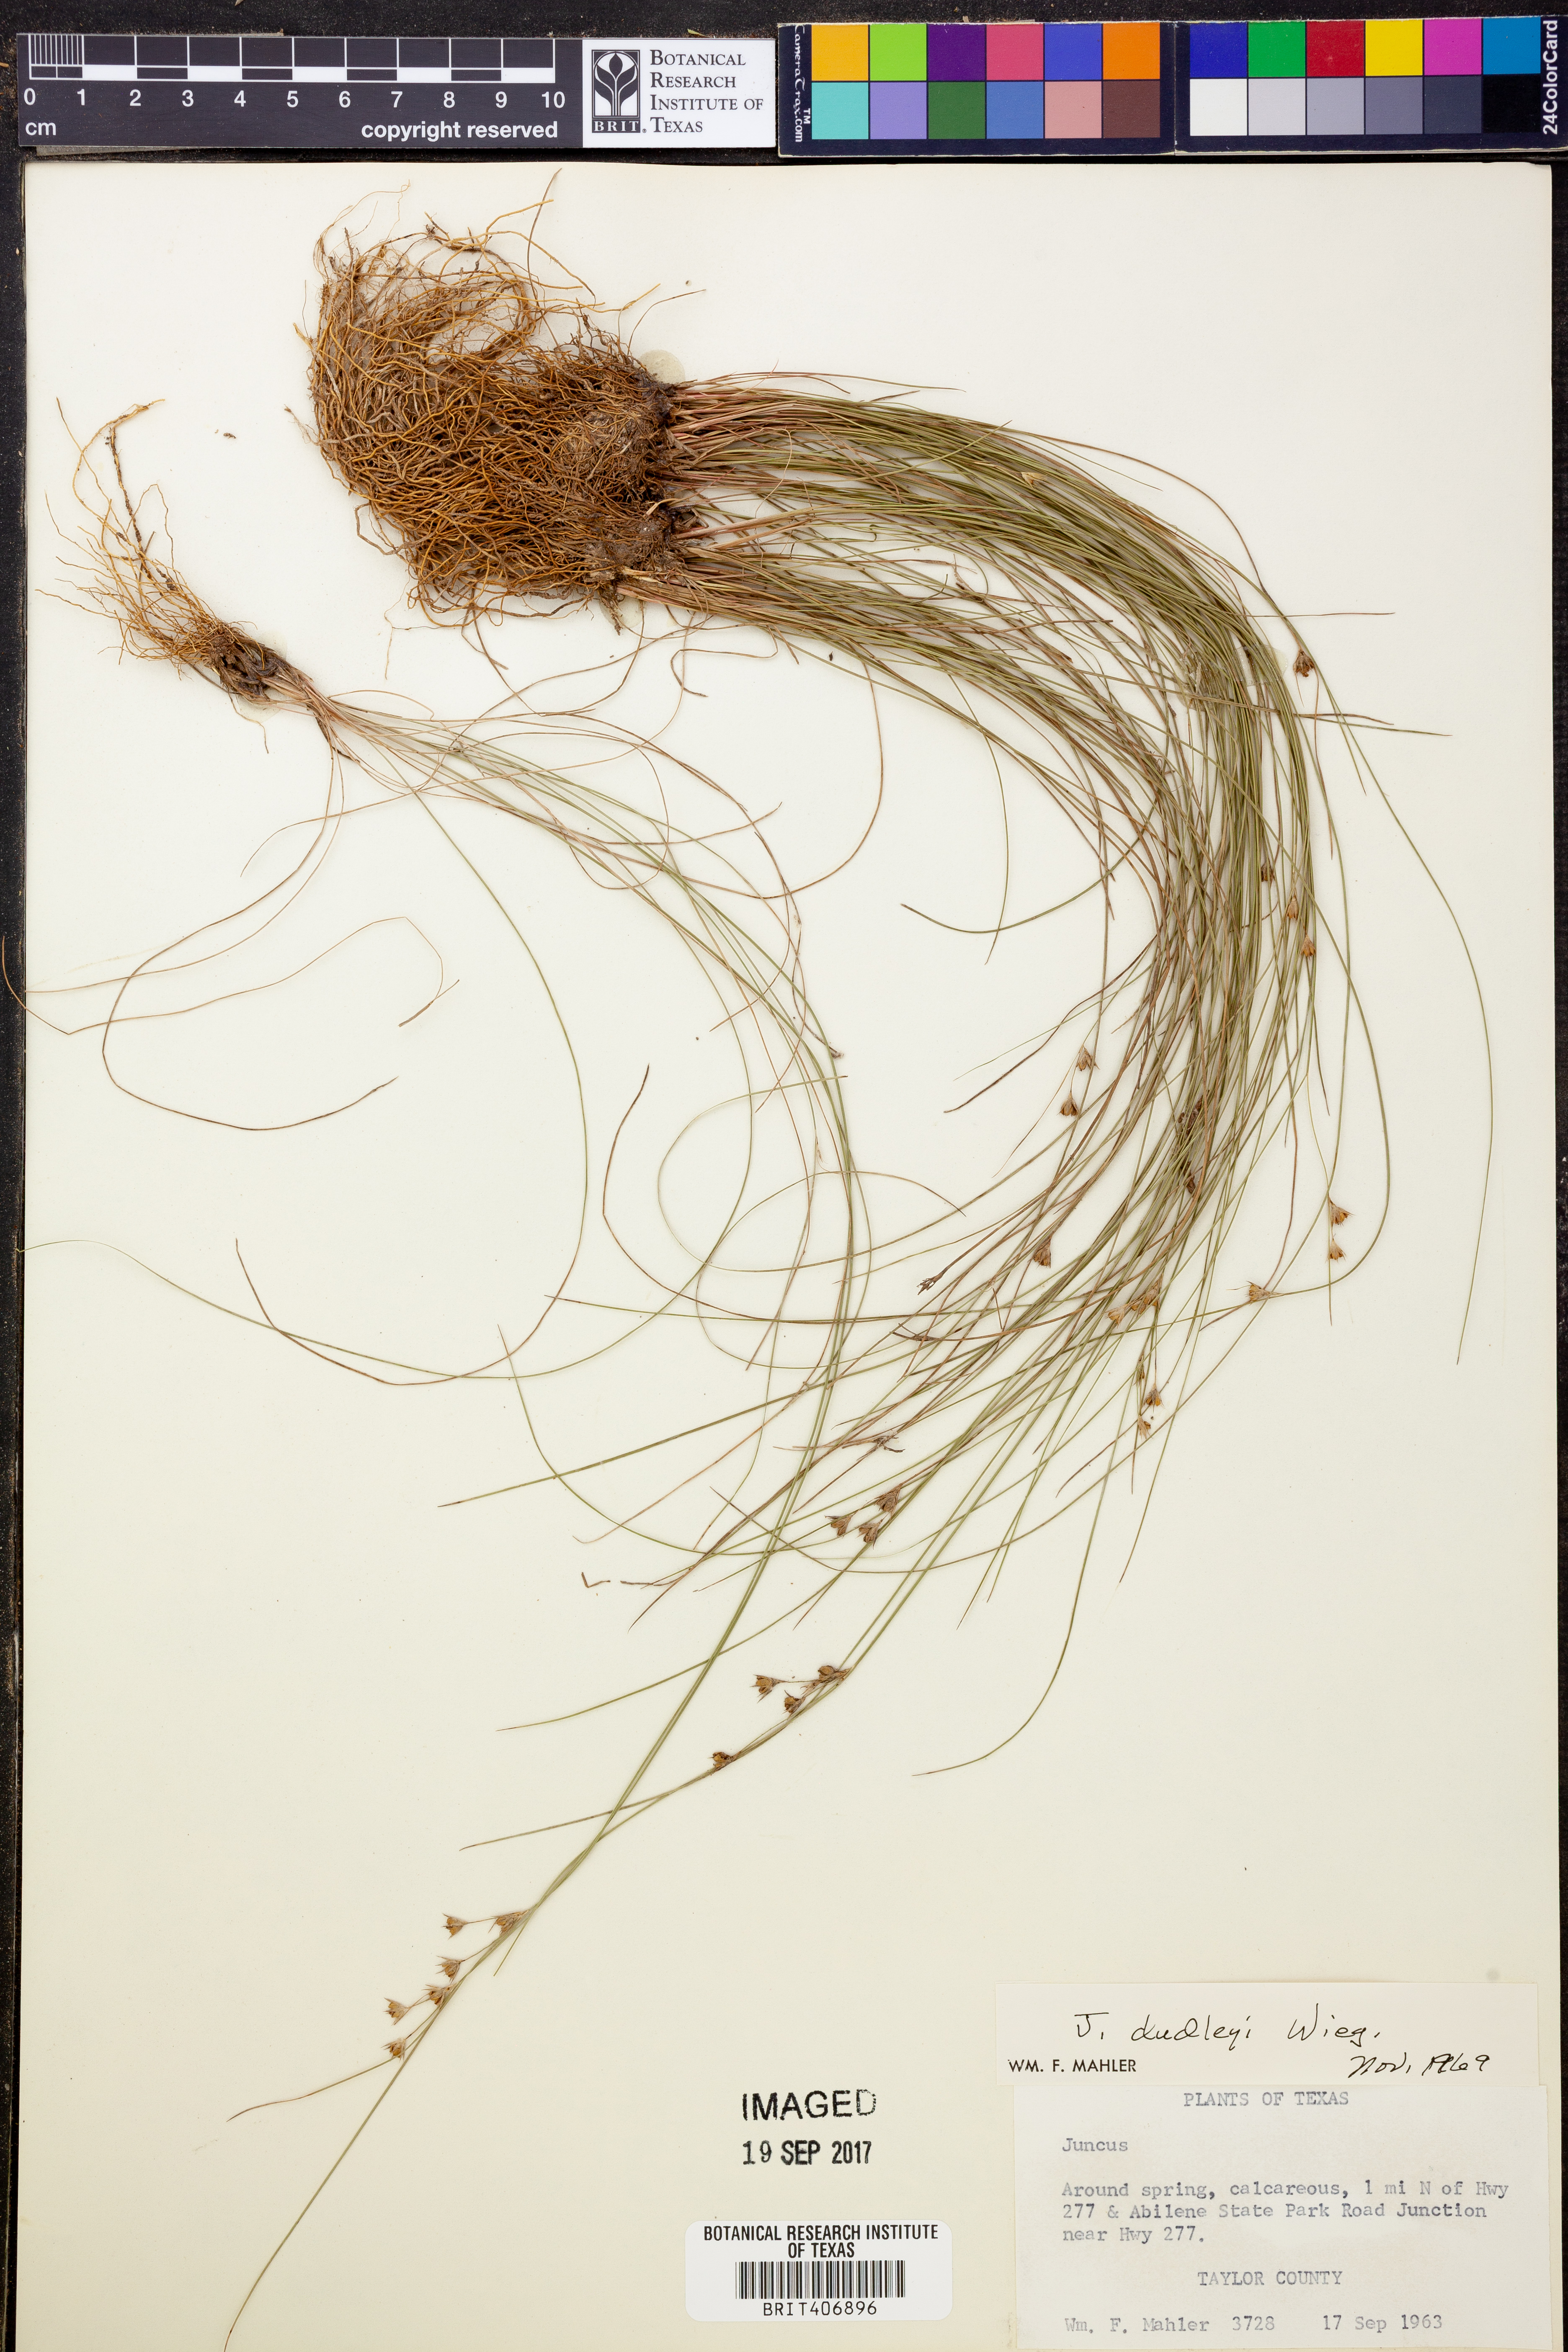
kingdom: Plantae
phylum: Tracheophyta
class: Liliopsida
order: Poales
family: Juncaceae
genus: Juncus
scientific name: Juncus dudleyi
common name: Dudley's rush
